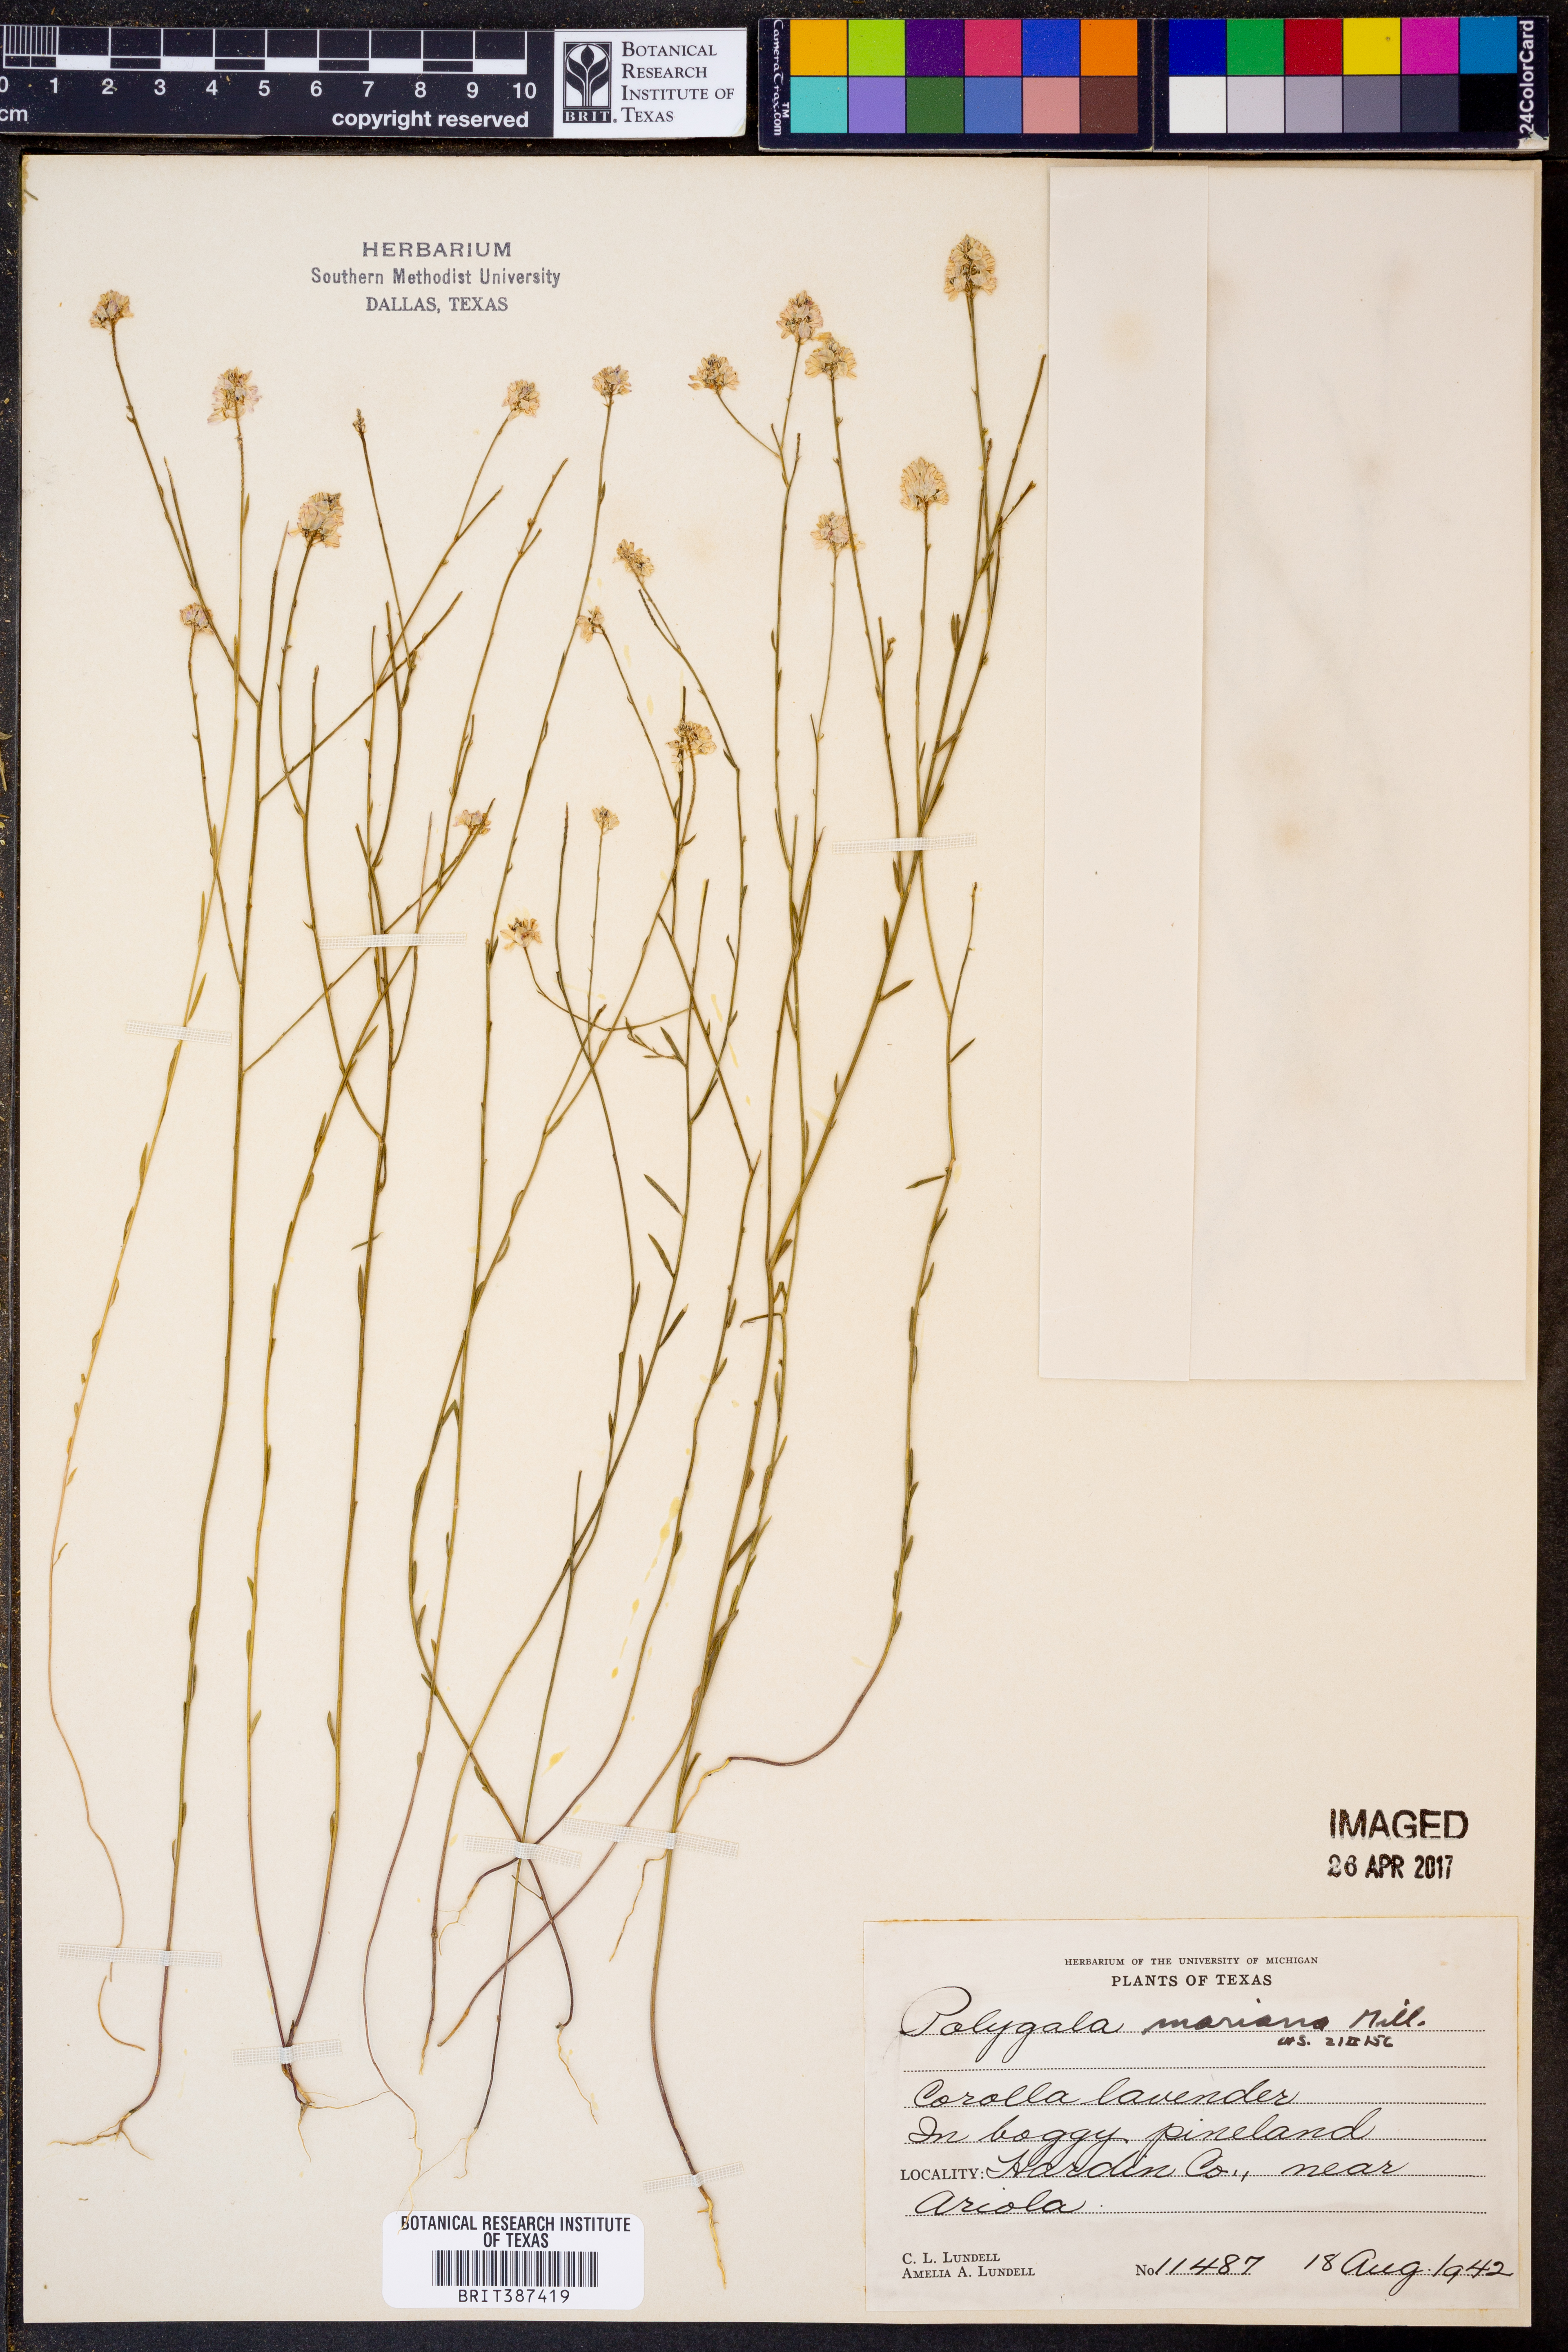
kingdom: Plantae
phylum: Tracheophyta
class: Magnoliopsida
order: Fabales
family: Polygalaceae
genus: Polygala
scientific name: Polygala mariana
